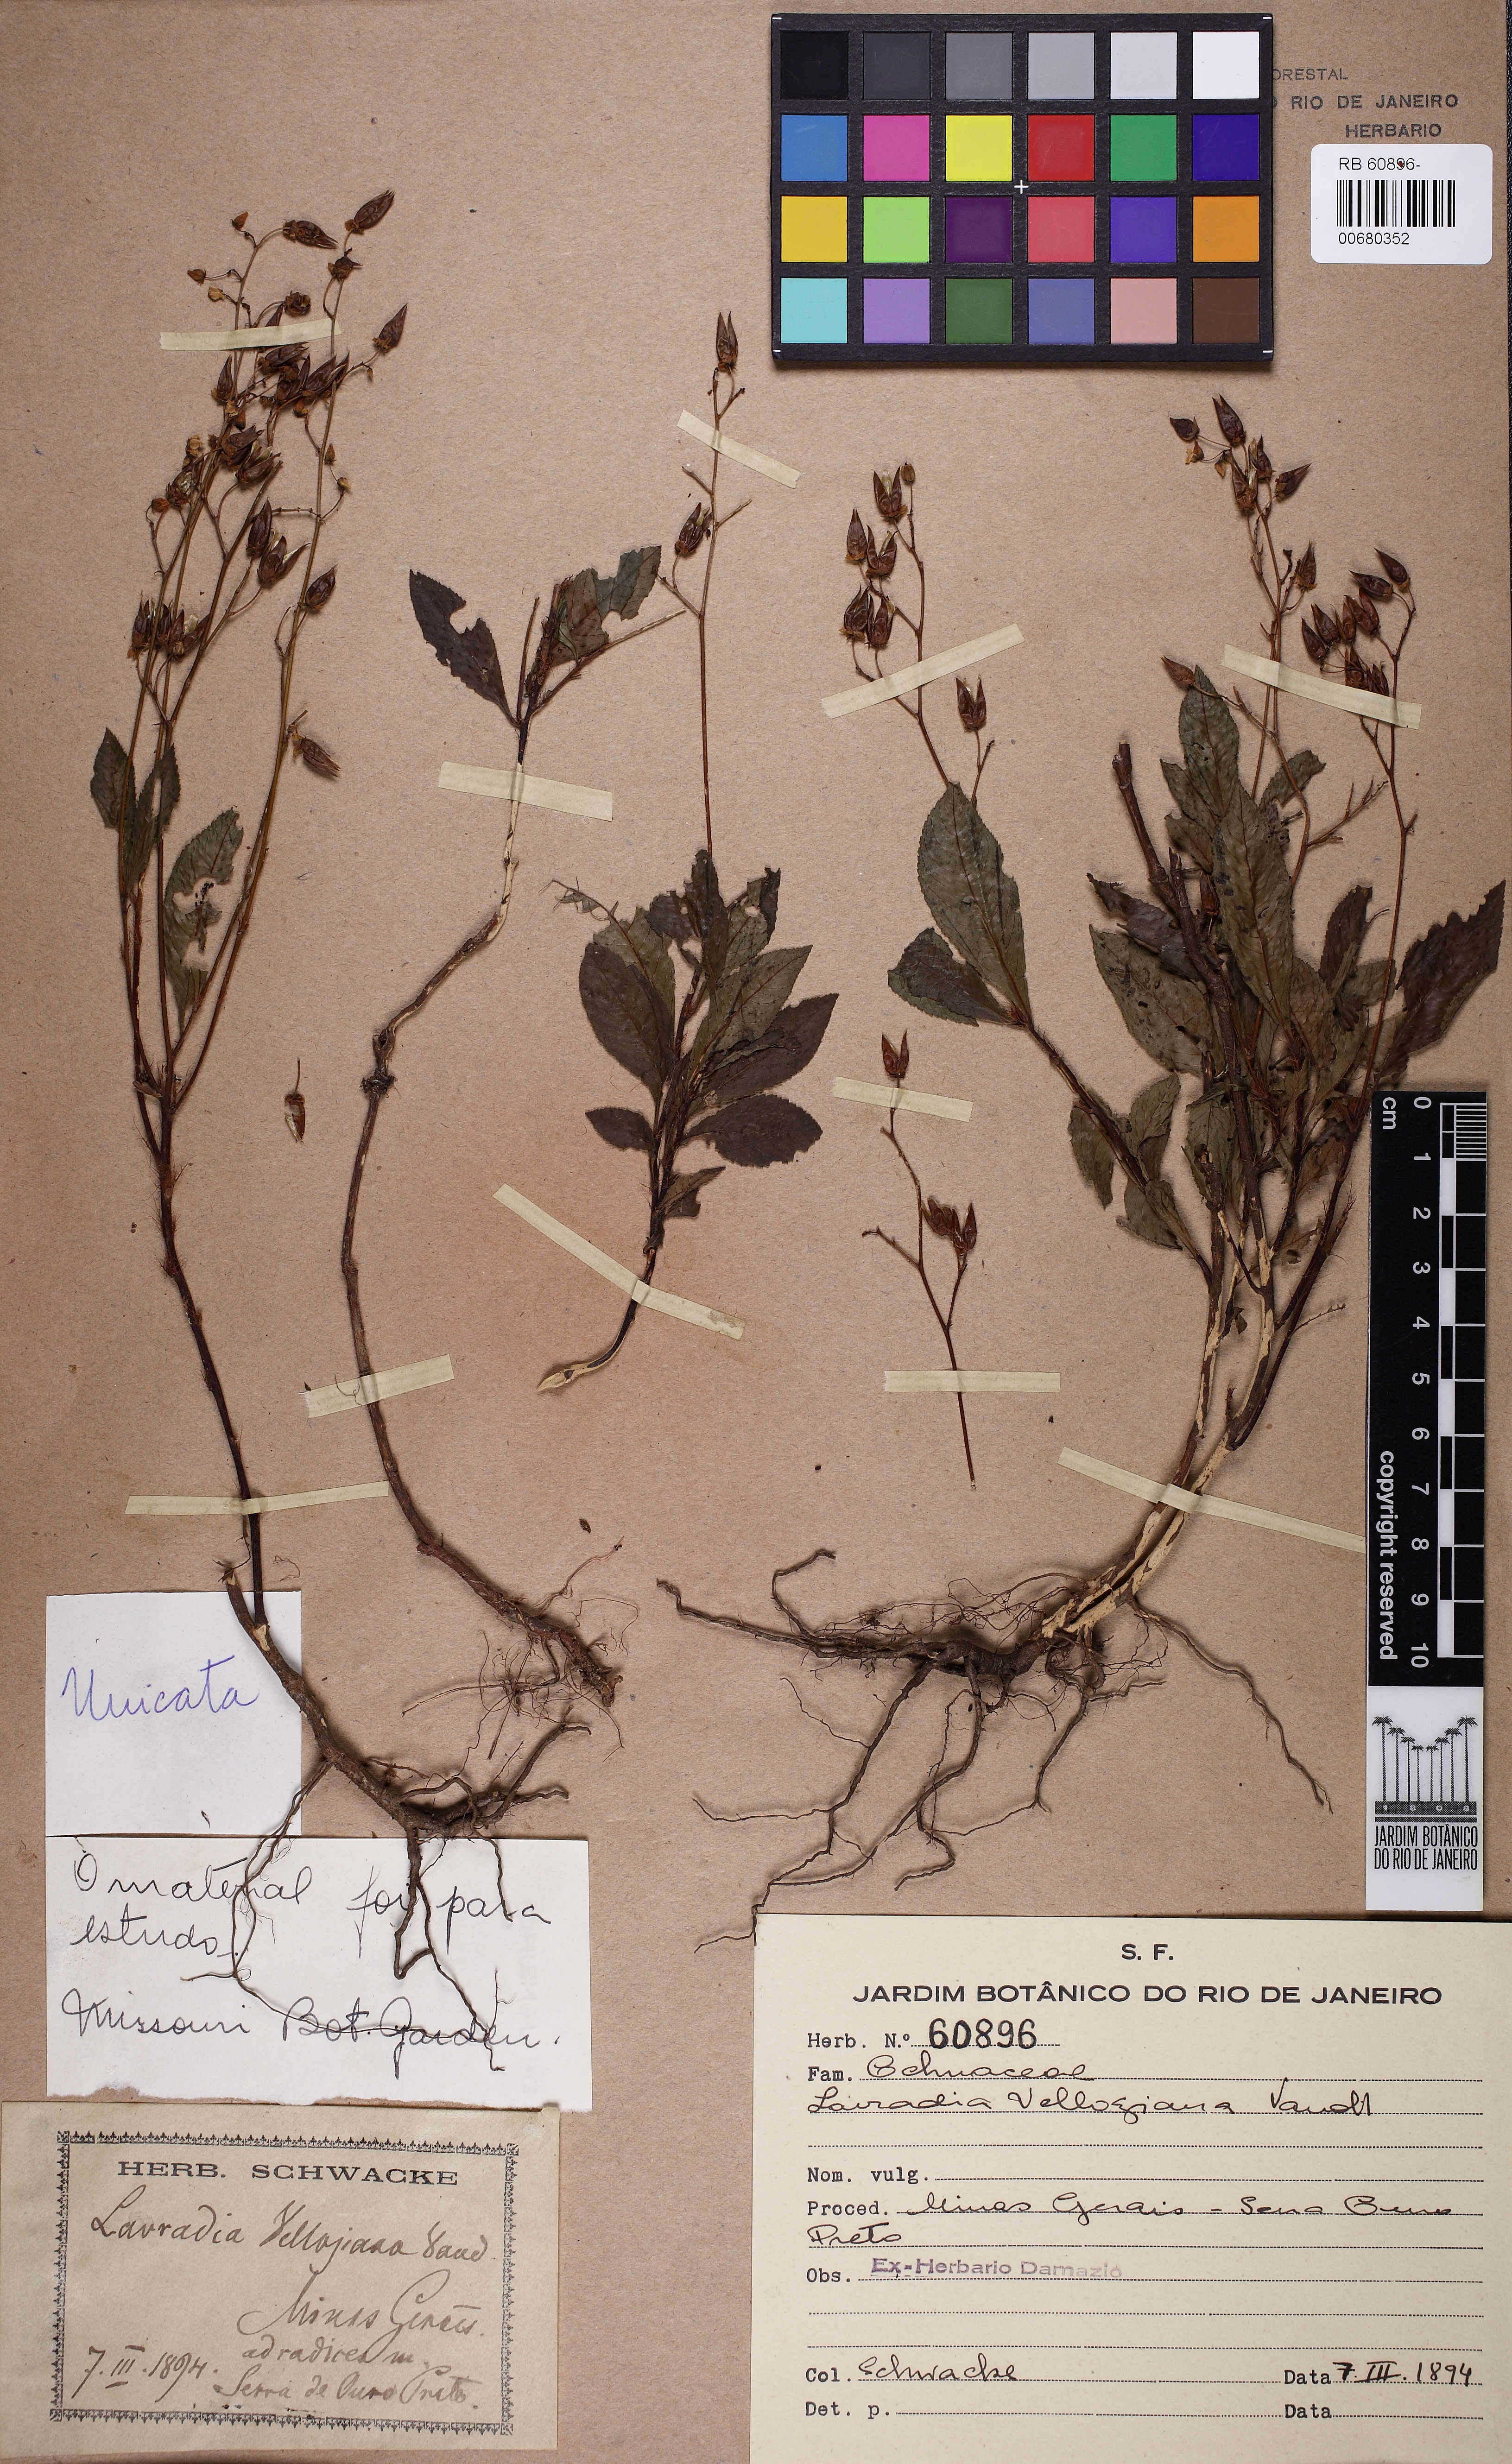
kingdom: Plantae
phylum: Tracheophyta
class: Magnoliopsida
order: Malpighiales
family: Ochnaceae
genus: Sauvagesia
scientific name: Sauvagesia vellozii
